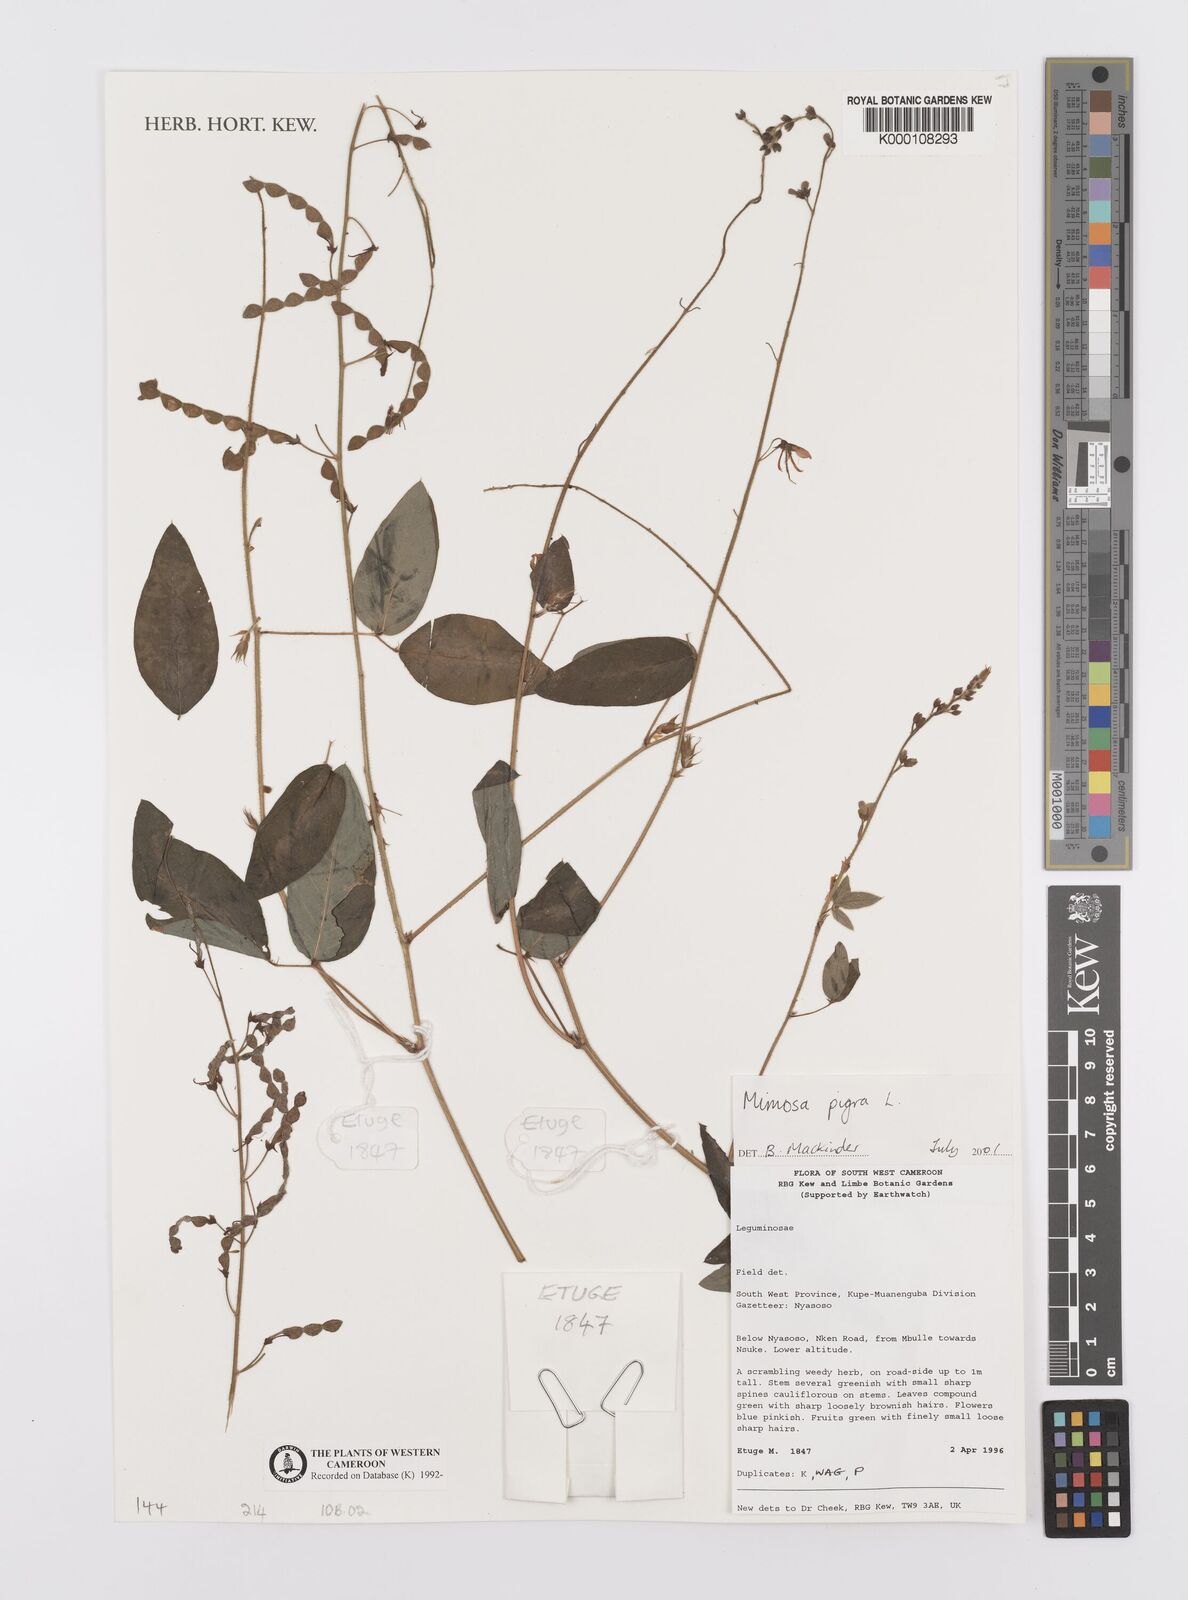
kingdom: Plantae
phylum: Tracheophyta
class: Magnoliopsida
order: Fabales
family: Fabaceae
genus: Mimosa
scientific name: Mimosa pudica
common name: Sensitive plant
